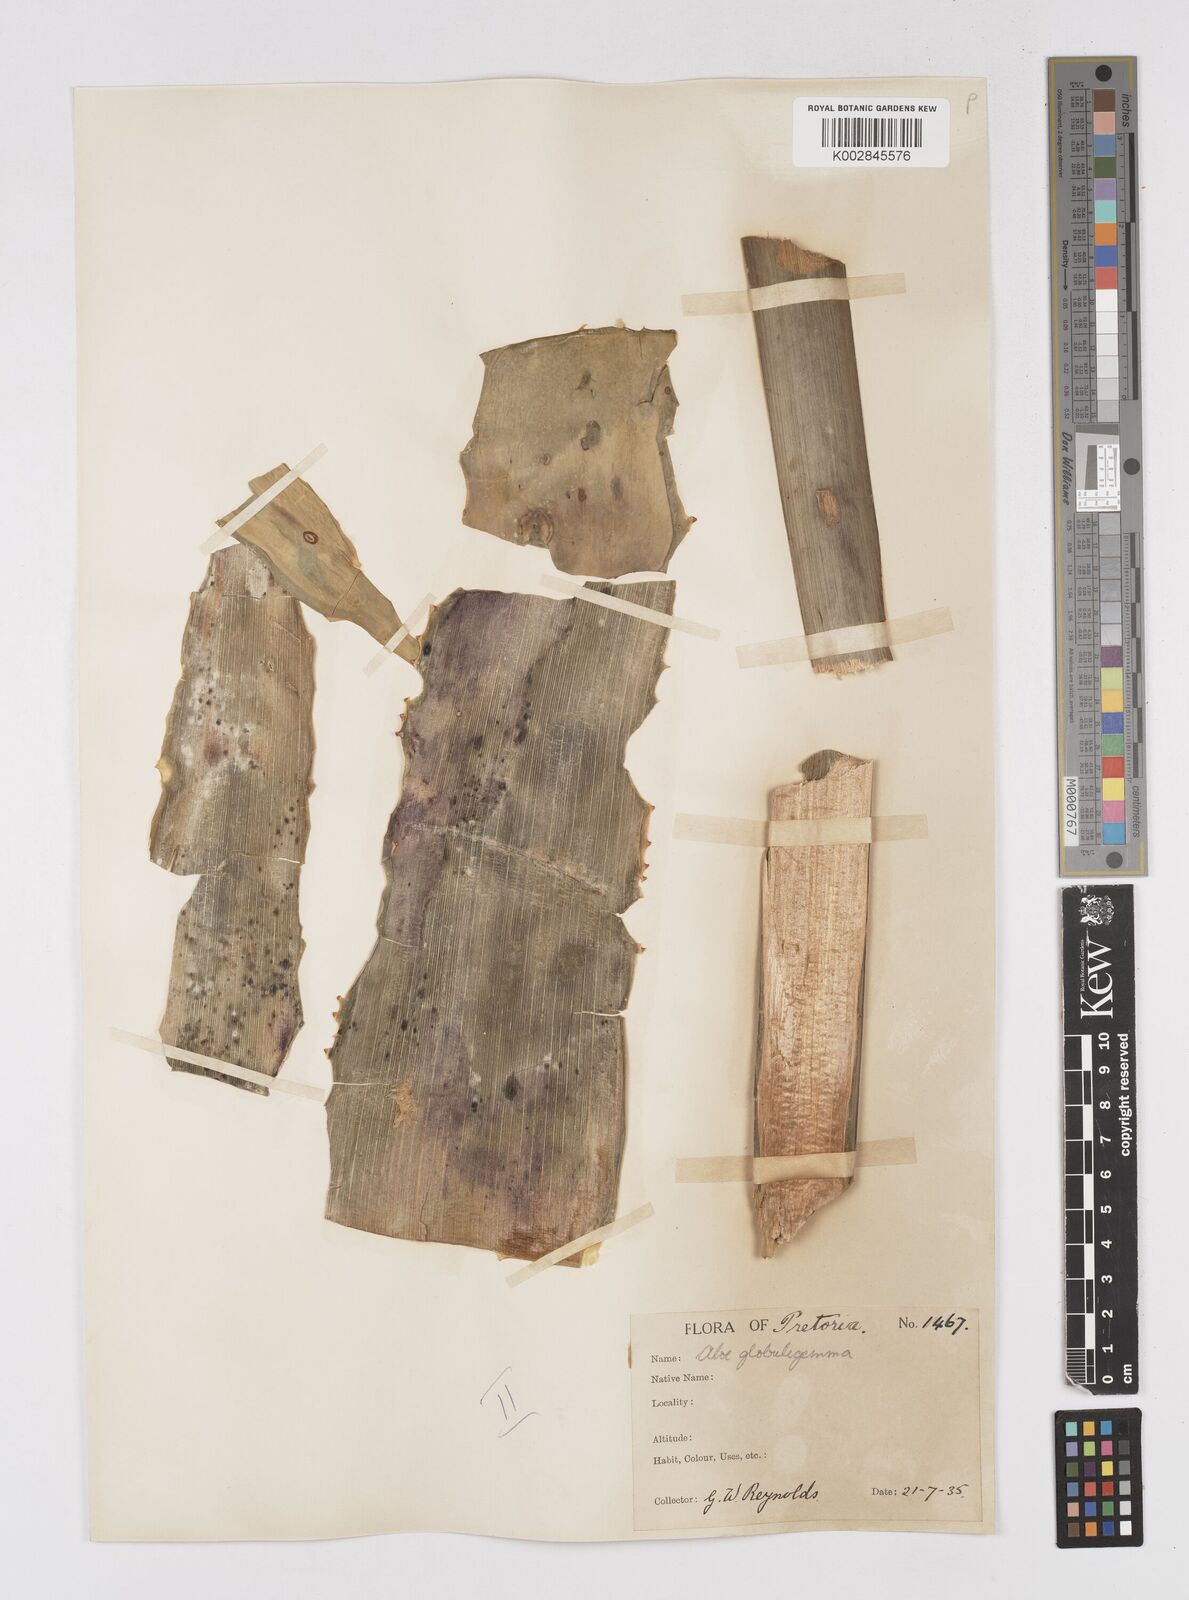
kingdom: Plantae
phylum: Tracheophyta
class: Liliopsida
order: Asparagales
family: Asphodelaceae
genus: Aloe
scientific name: Aloe globuligemma
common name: Witchdoctor's aloe
